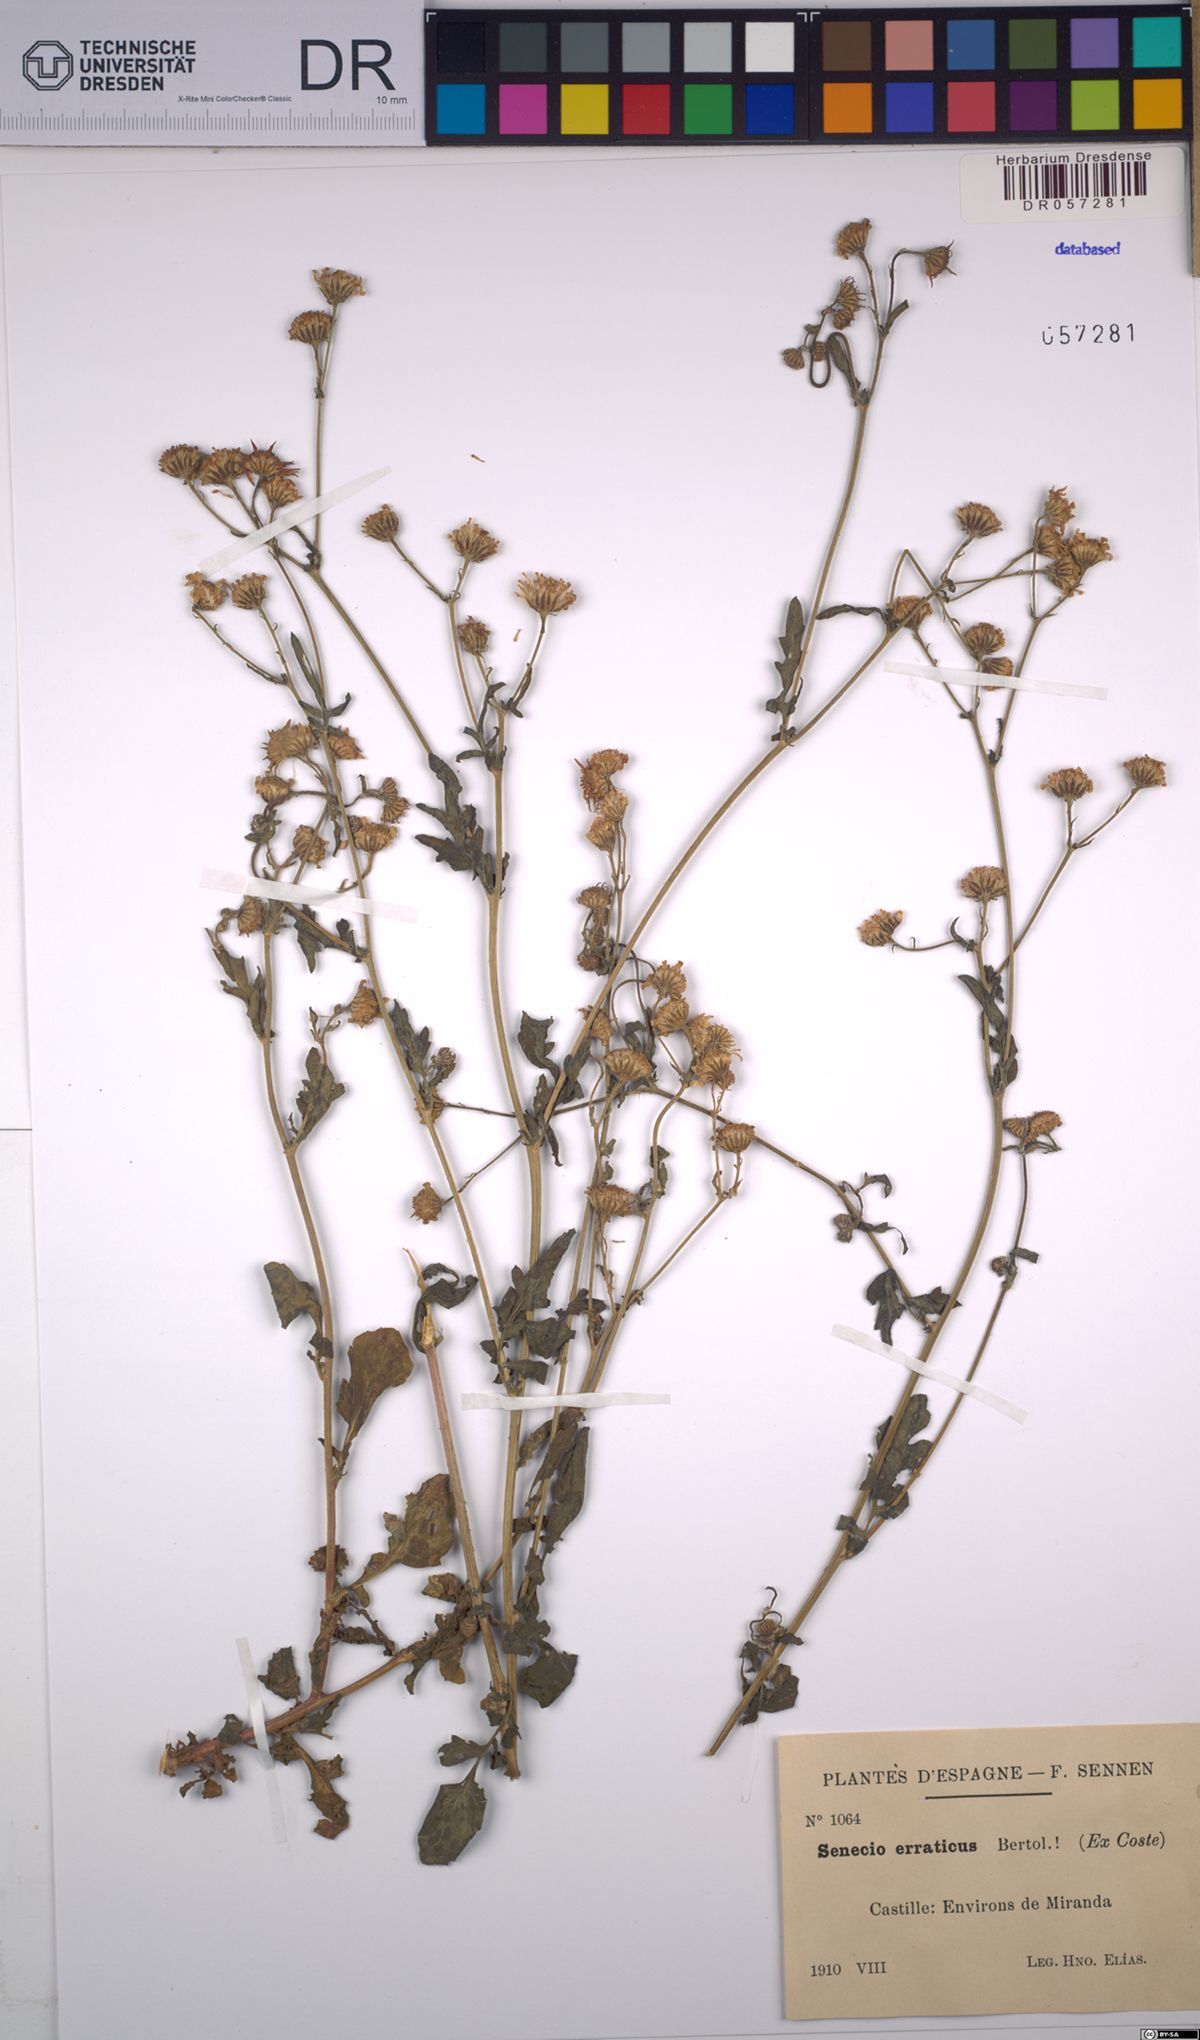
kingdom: Plantae
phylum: Tracheophyta
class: Magnoliopsida
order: Asterales
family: Asteraceae
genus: Jacobaea
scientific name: Jacobaea erratica
